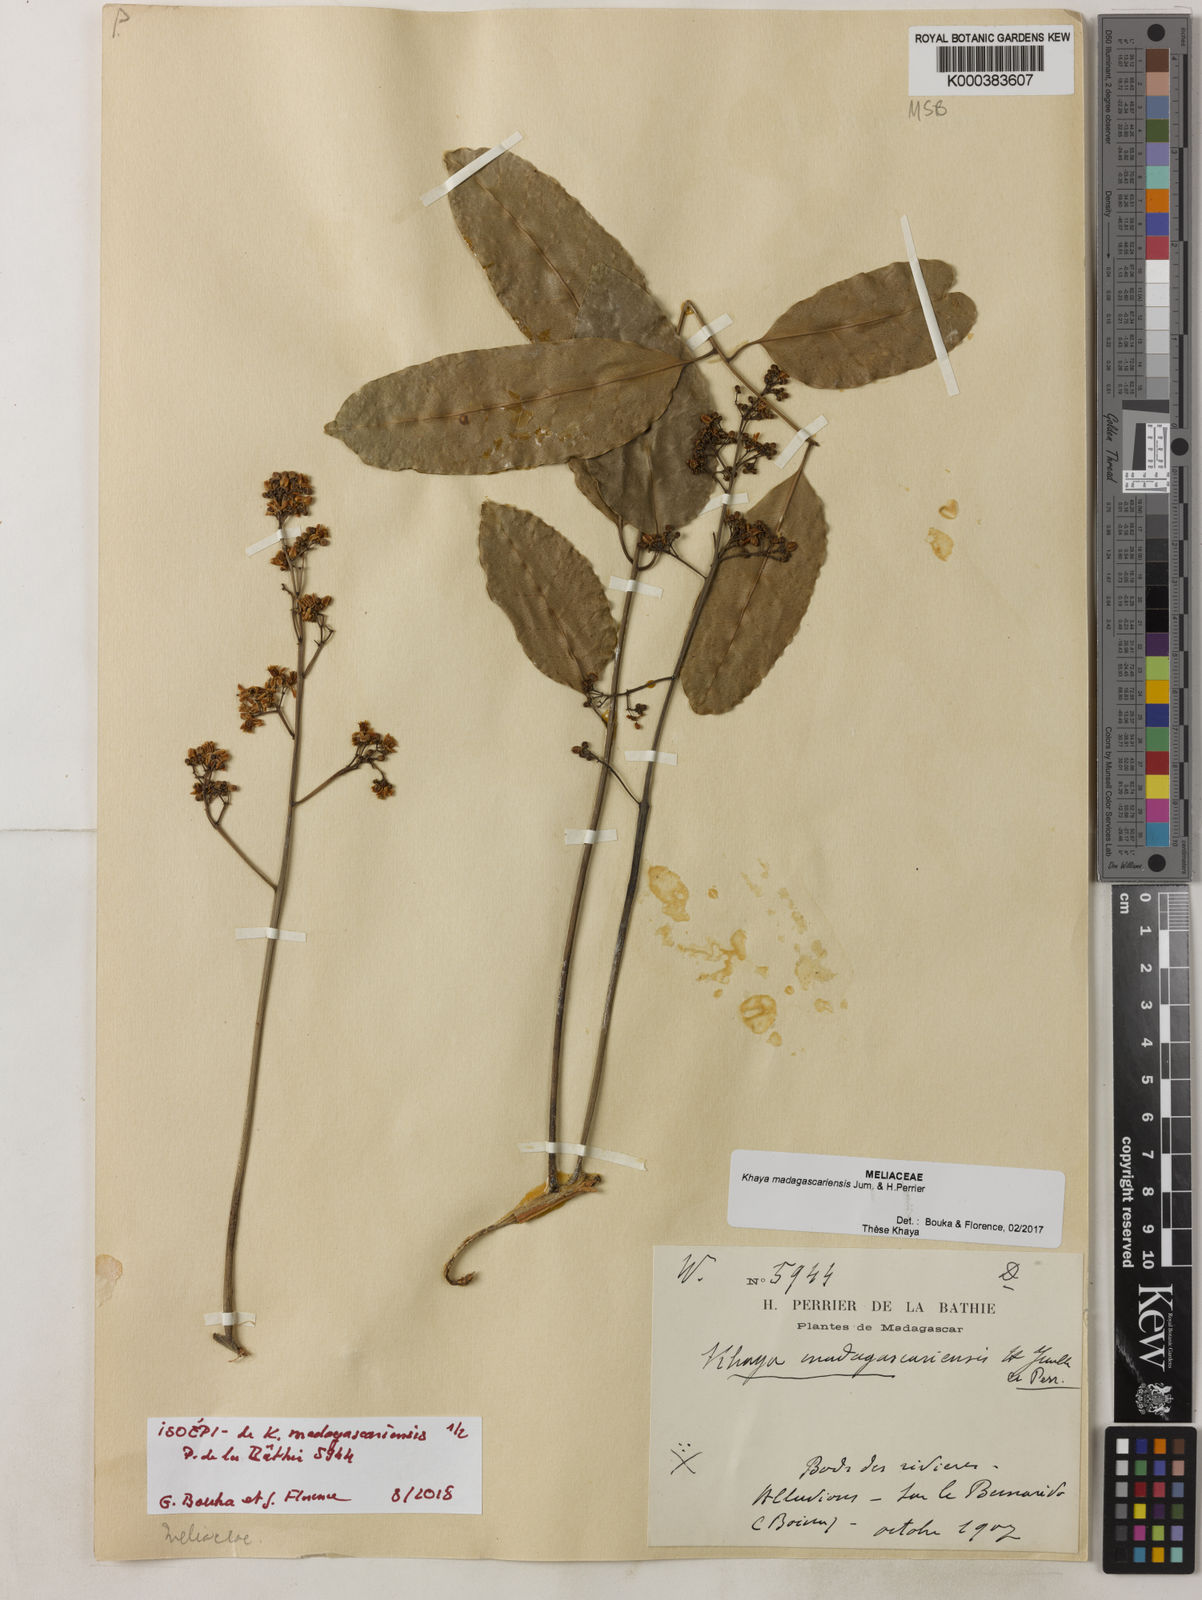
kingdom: Plantae
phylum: Tracheophyta
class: Magnoliopsida
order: Sapindales
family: Meliaceae
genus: Khaya
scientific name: Khaya madagascariensis
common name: Madagascar-mahogany
